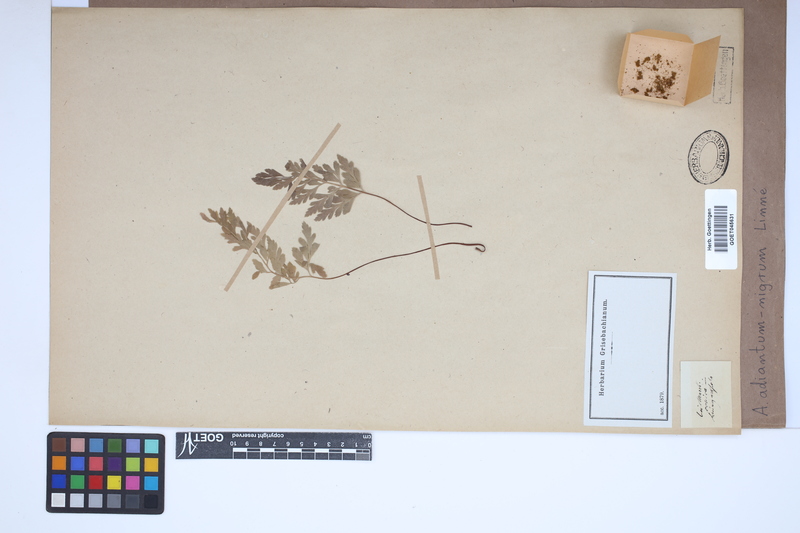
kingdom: Plantae
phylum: Tracheophyta
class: Polypodiopsida
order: Polypodiales
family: Aspleniaceae
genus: Asplenium
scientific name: Asplenium adiantum-nigrum
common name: Black spleenwort
